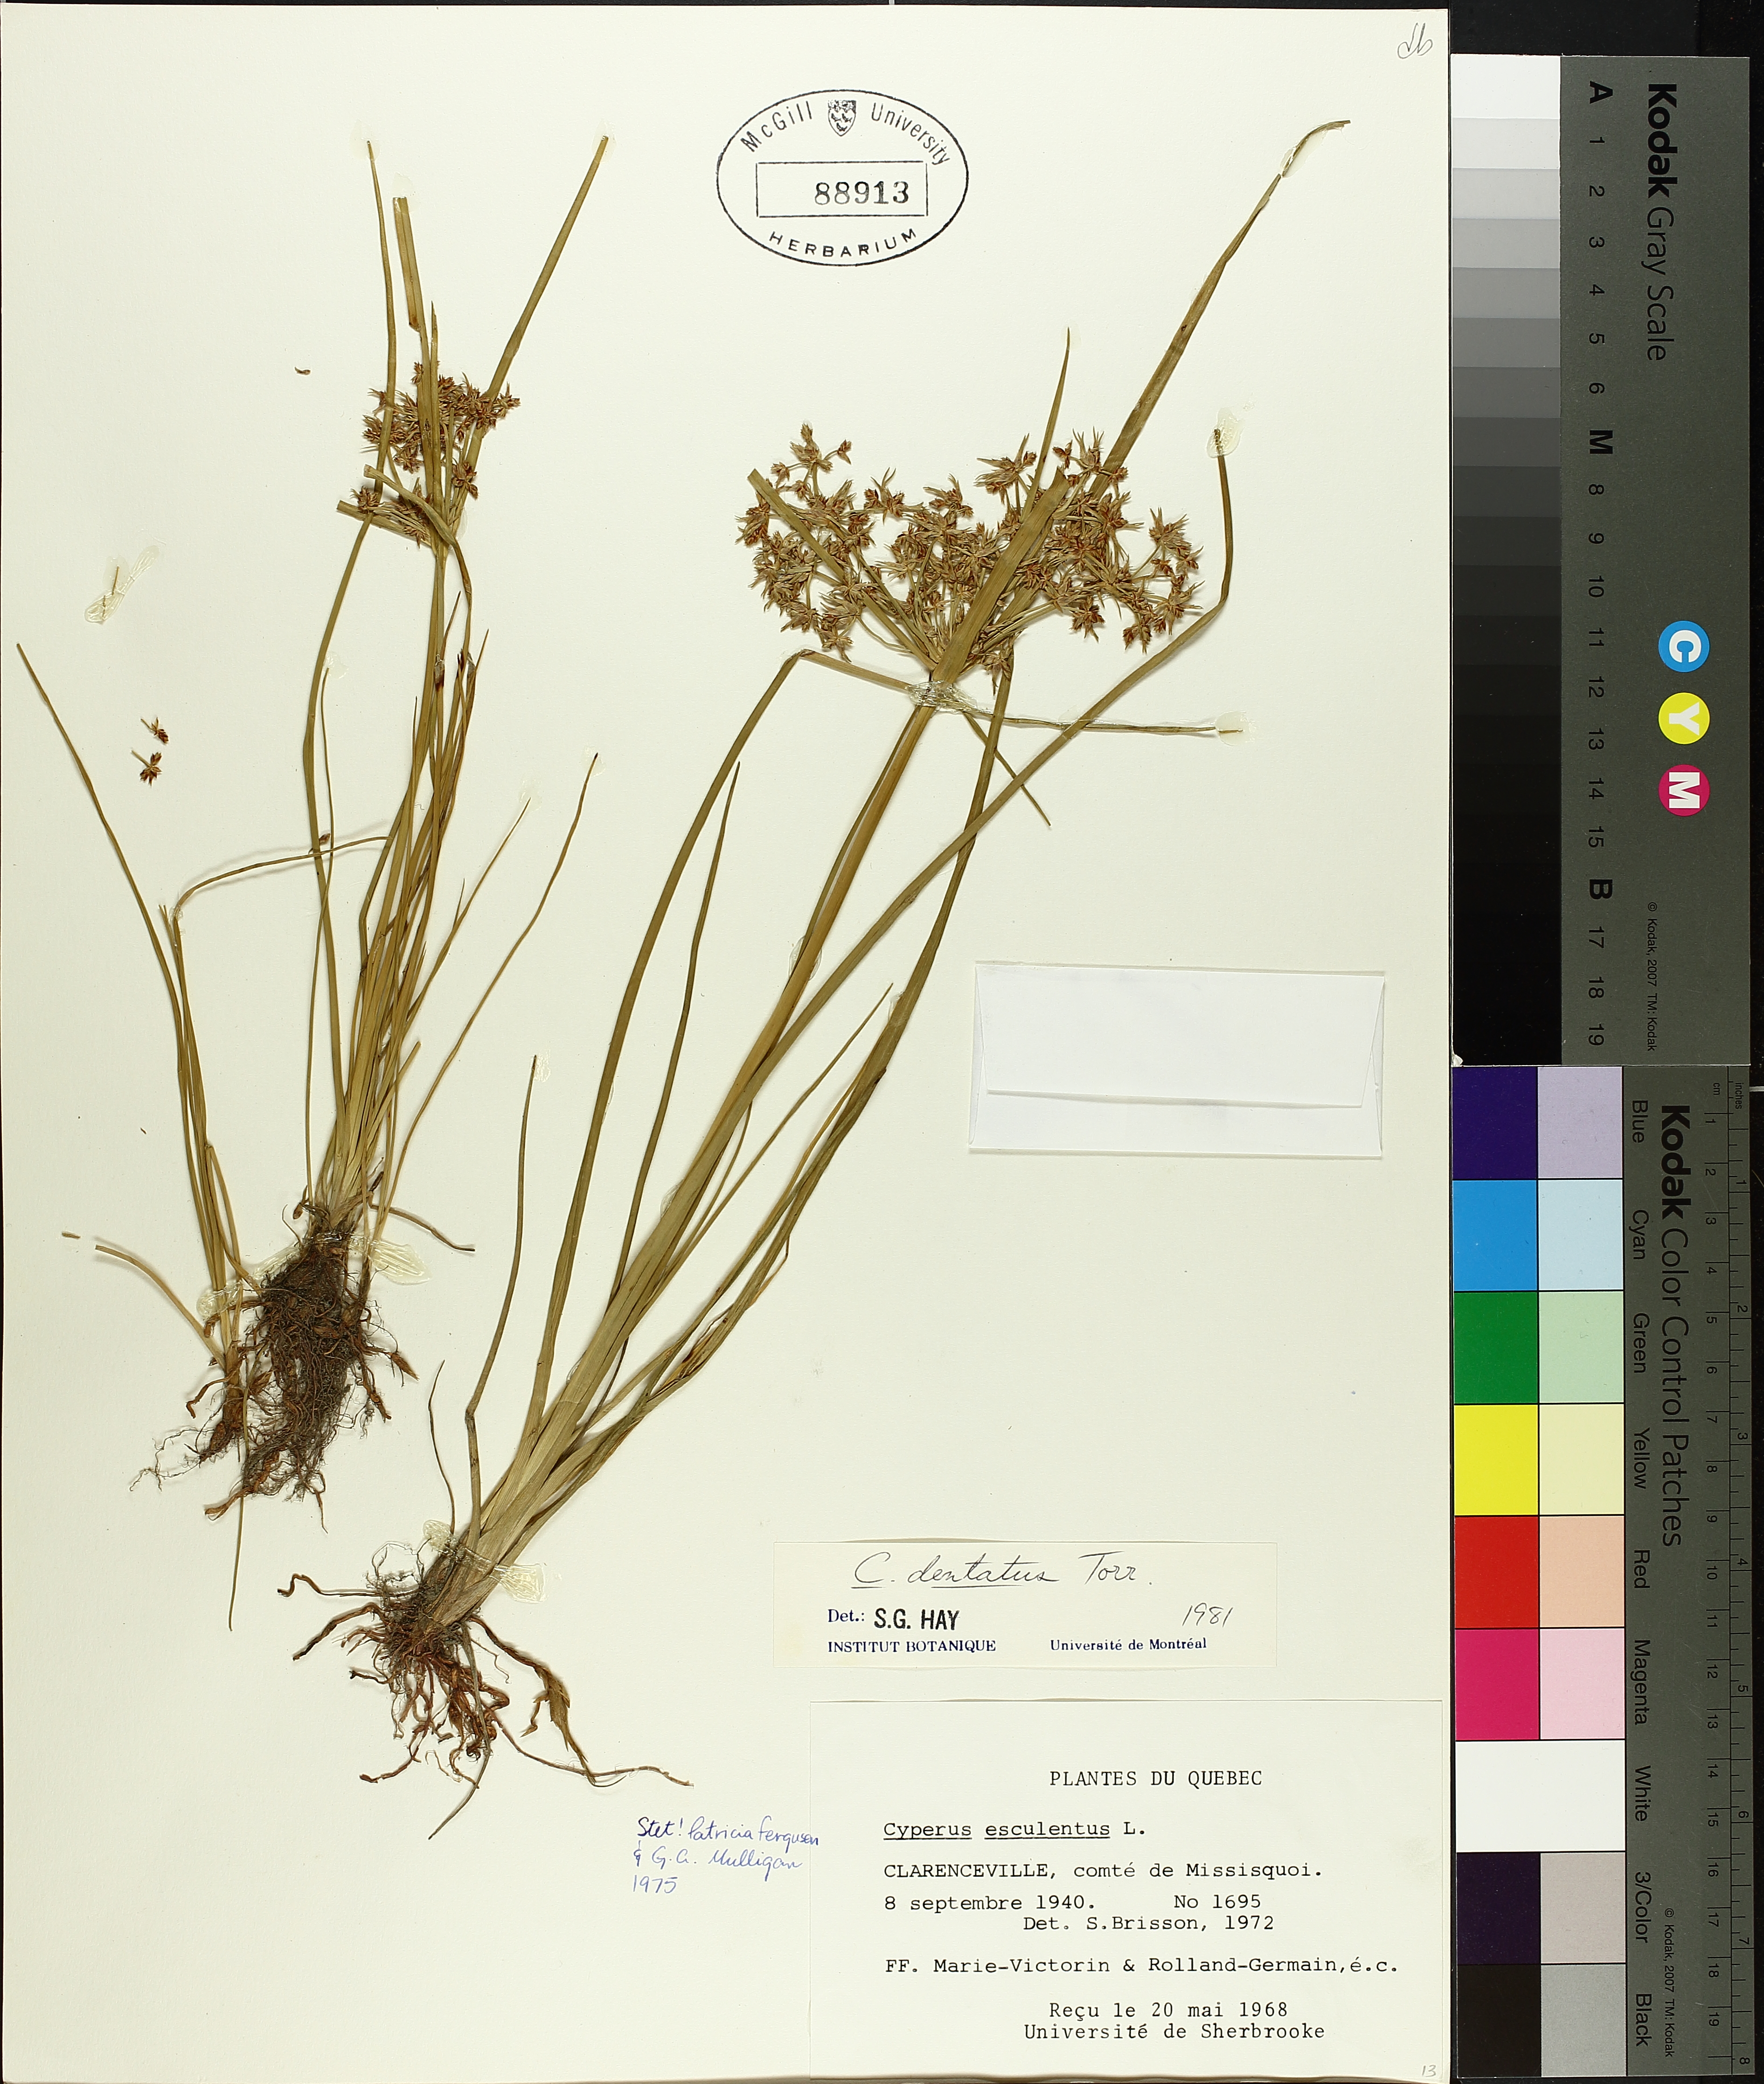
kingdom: Plantae
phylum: Tracheophyta
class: Liliopsida
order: Poales
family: Cyperaceae
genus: Cyperus
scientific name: Cyperus dentatus
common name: Dentate umbrella sedge
